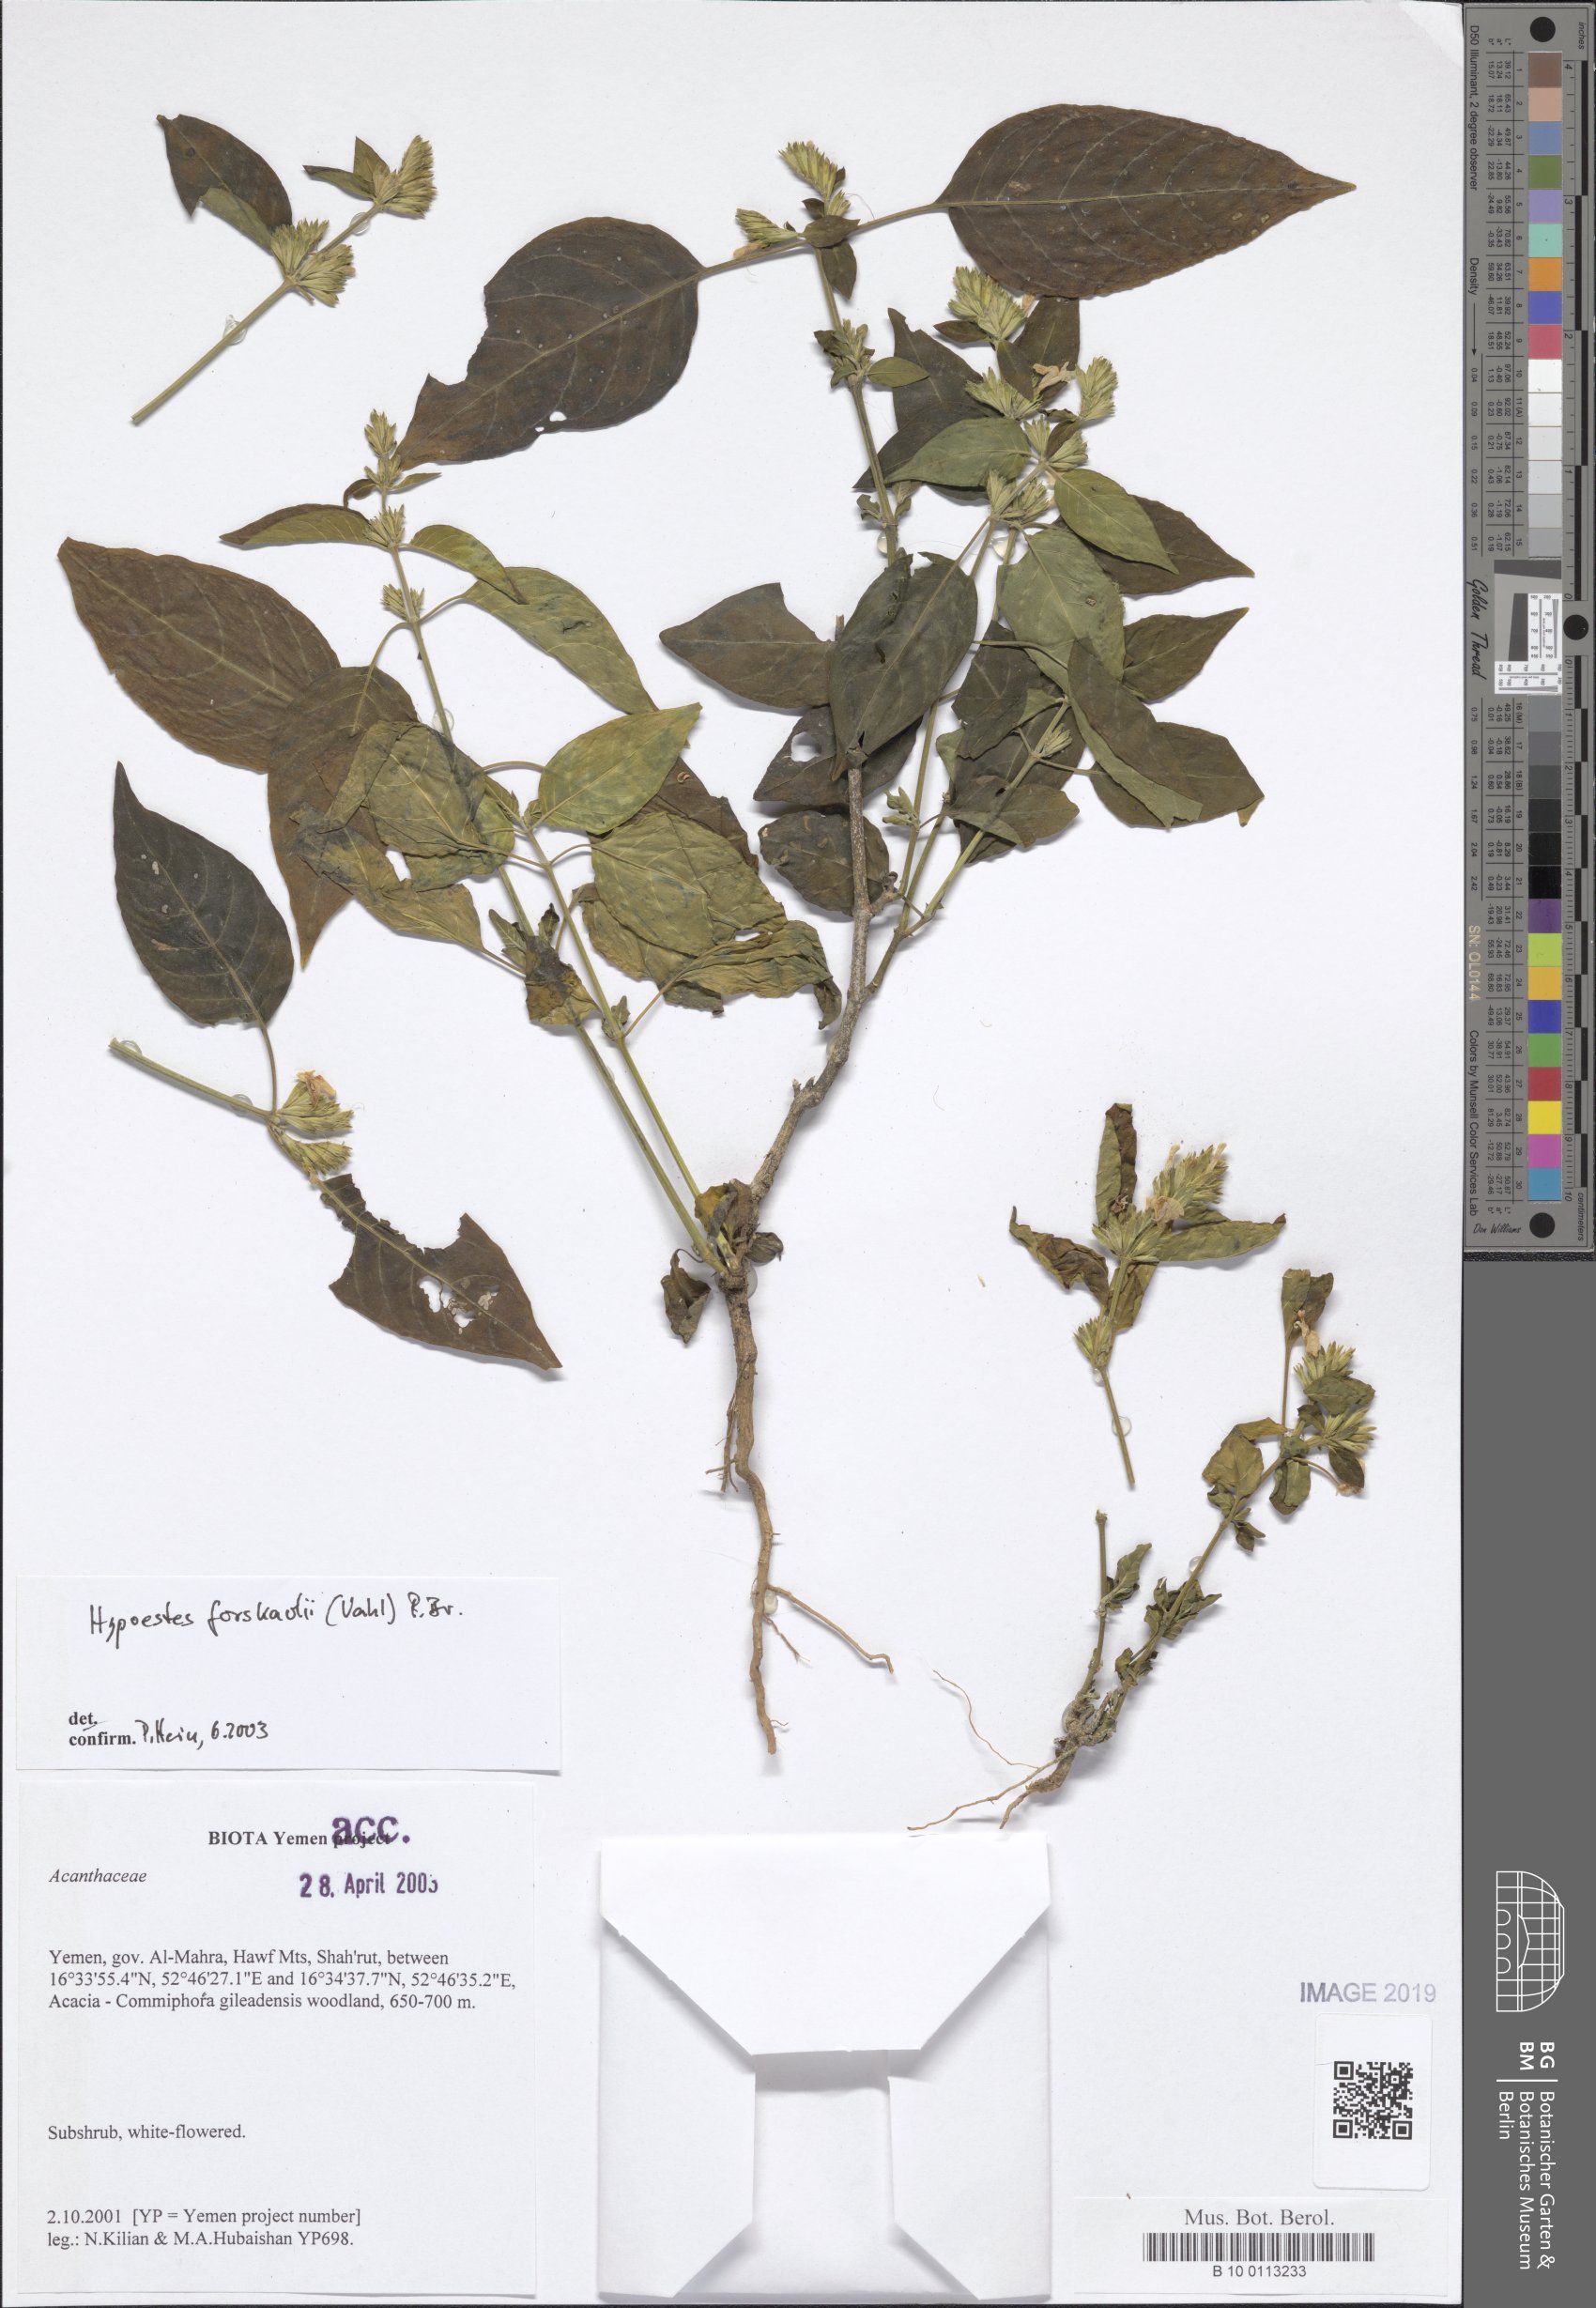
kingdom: Plantae
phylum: Tracheophyta
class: Magnoliopsida
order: Lamiales
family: Acanthaceae
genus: Hypoestes
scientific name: Hypoestes forskaolii
